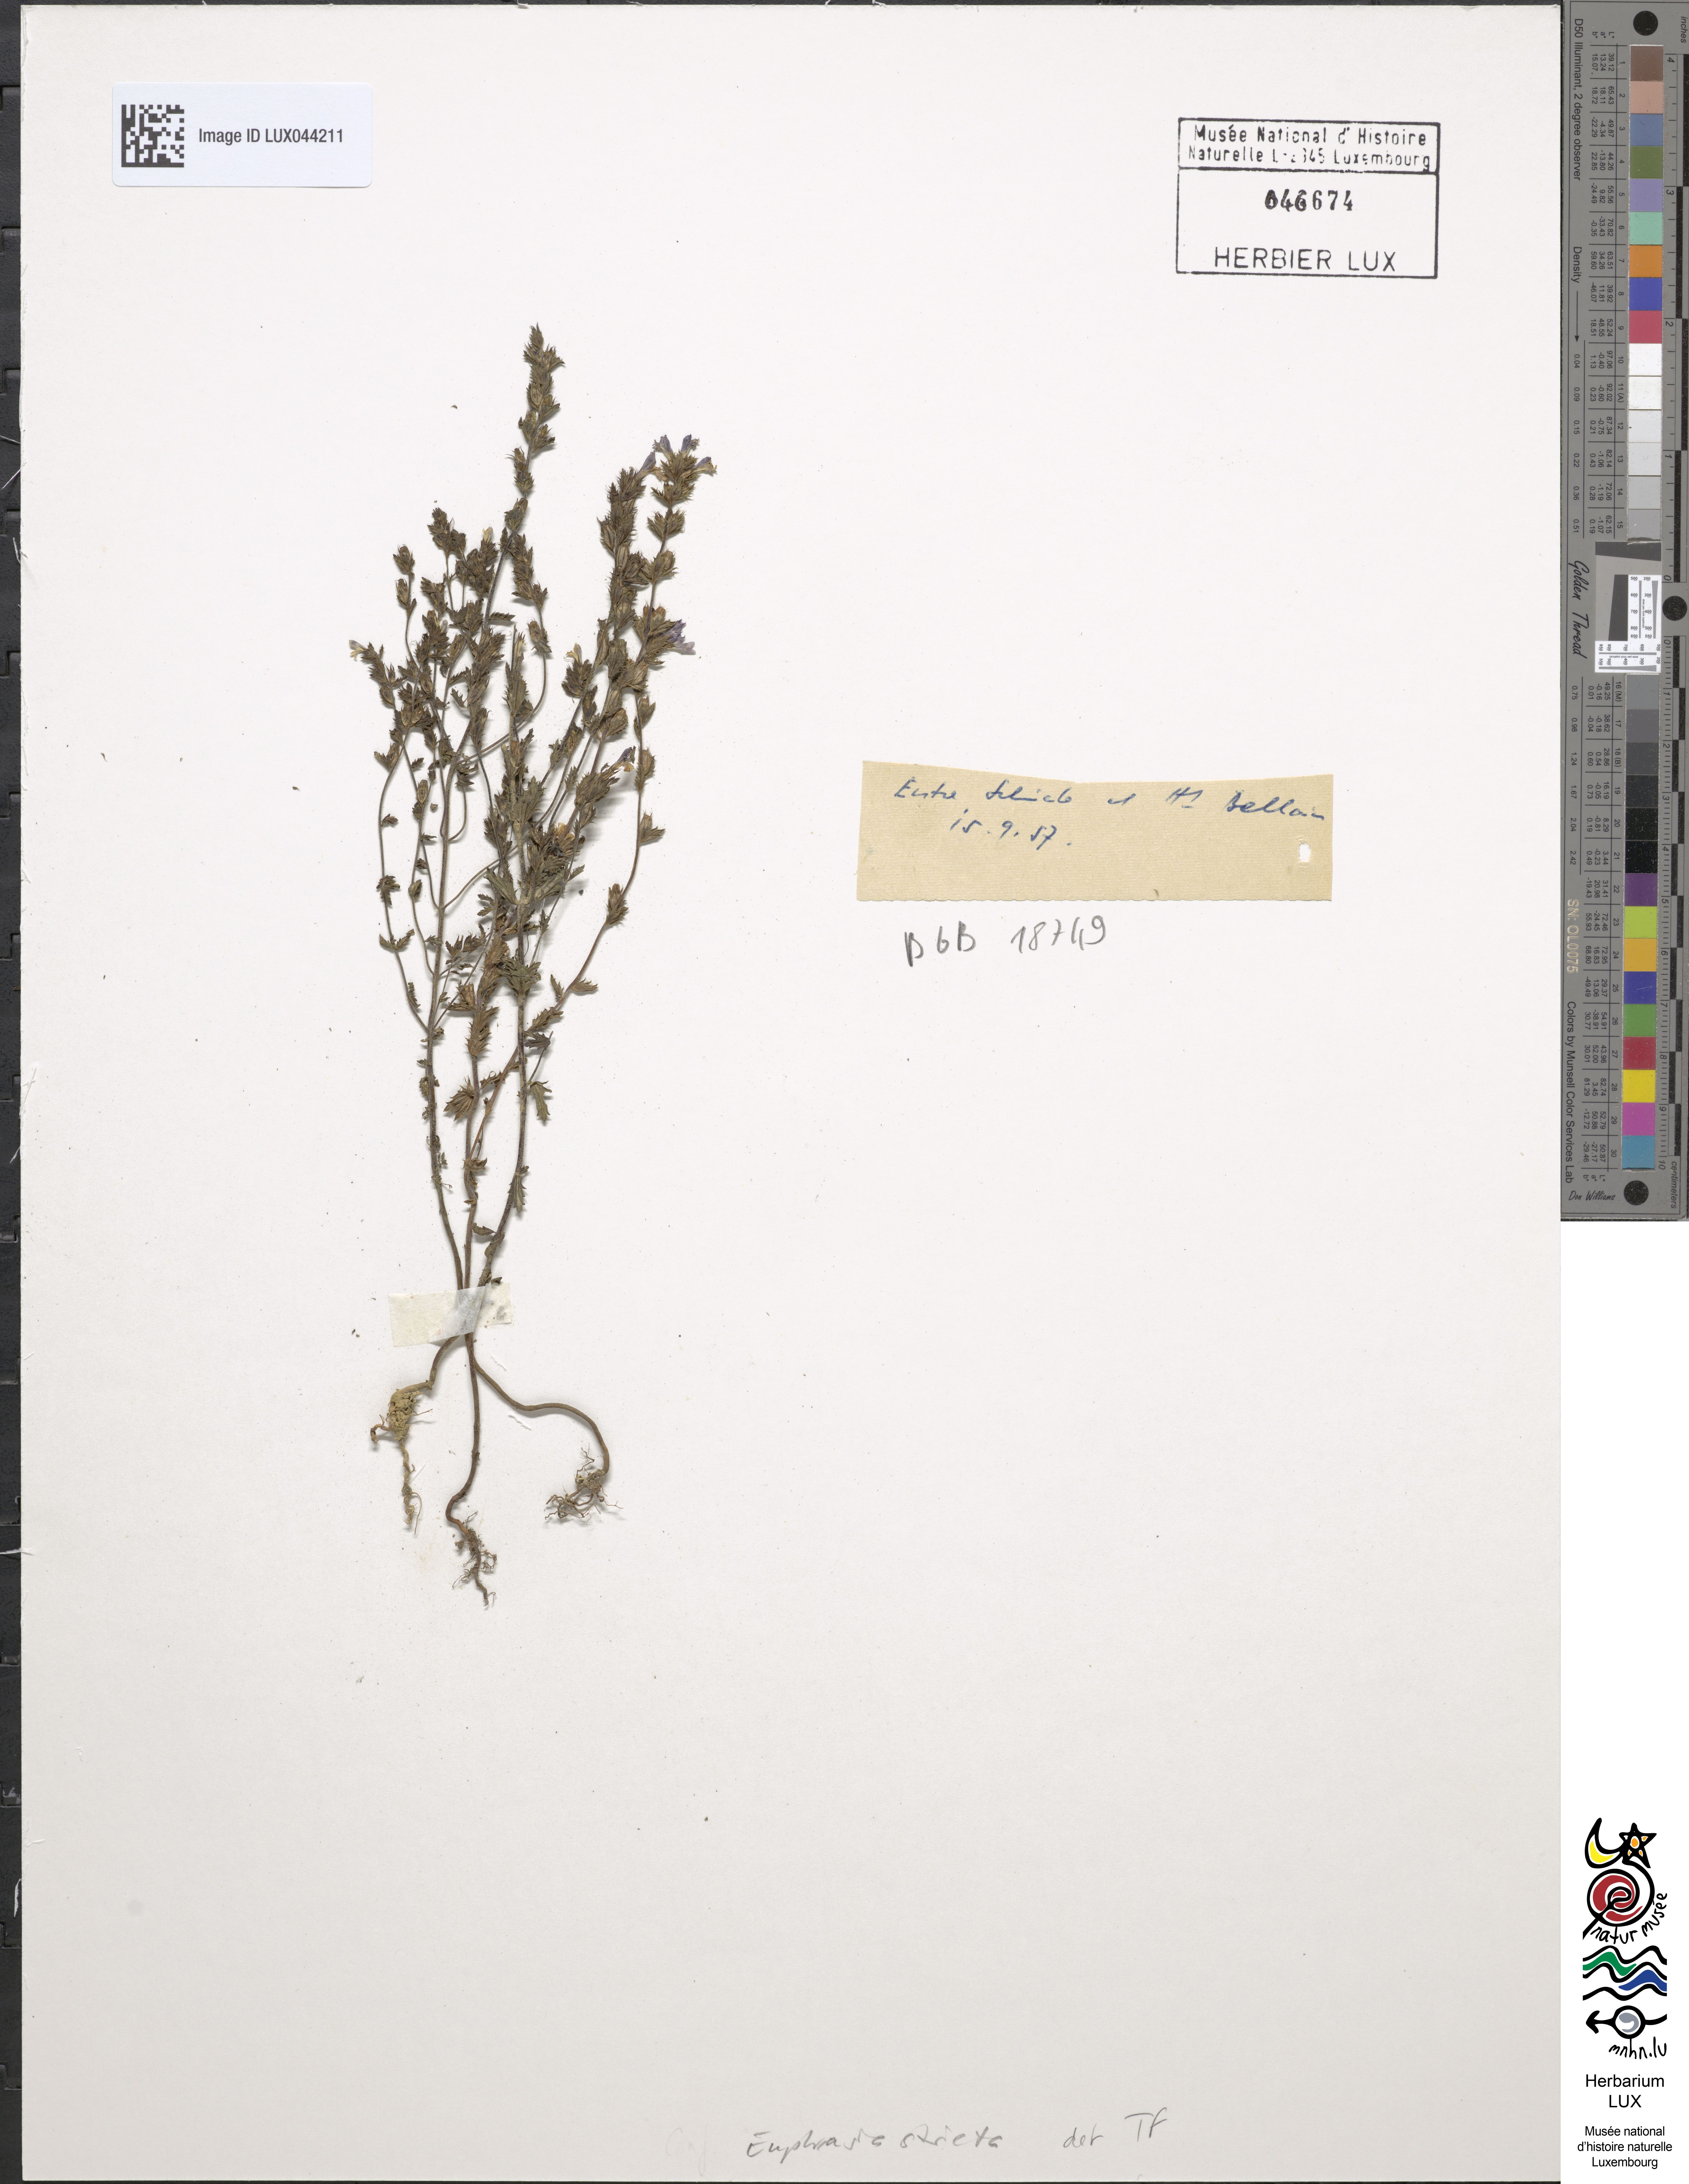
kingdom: Plantae
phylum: Tracheophyta
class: Magnoliopsida
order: Lamiales
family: Orobanchaceae
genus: Euphrasia
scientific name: Euphrasia stricta
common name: Drug eyebright
